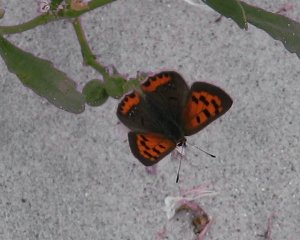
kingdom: Animalia
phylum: Arthropoda
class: Insecta
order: Lepidoptera
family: Lycaenidae
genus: Lycaena
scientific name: Lycaena phlaeas
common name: American Copper
